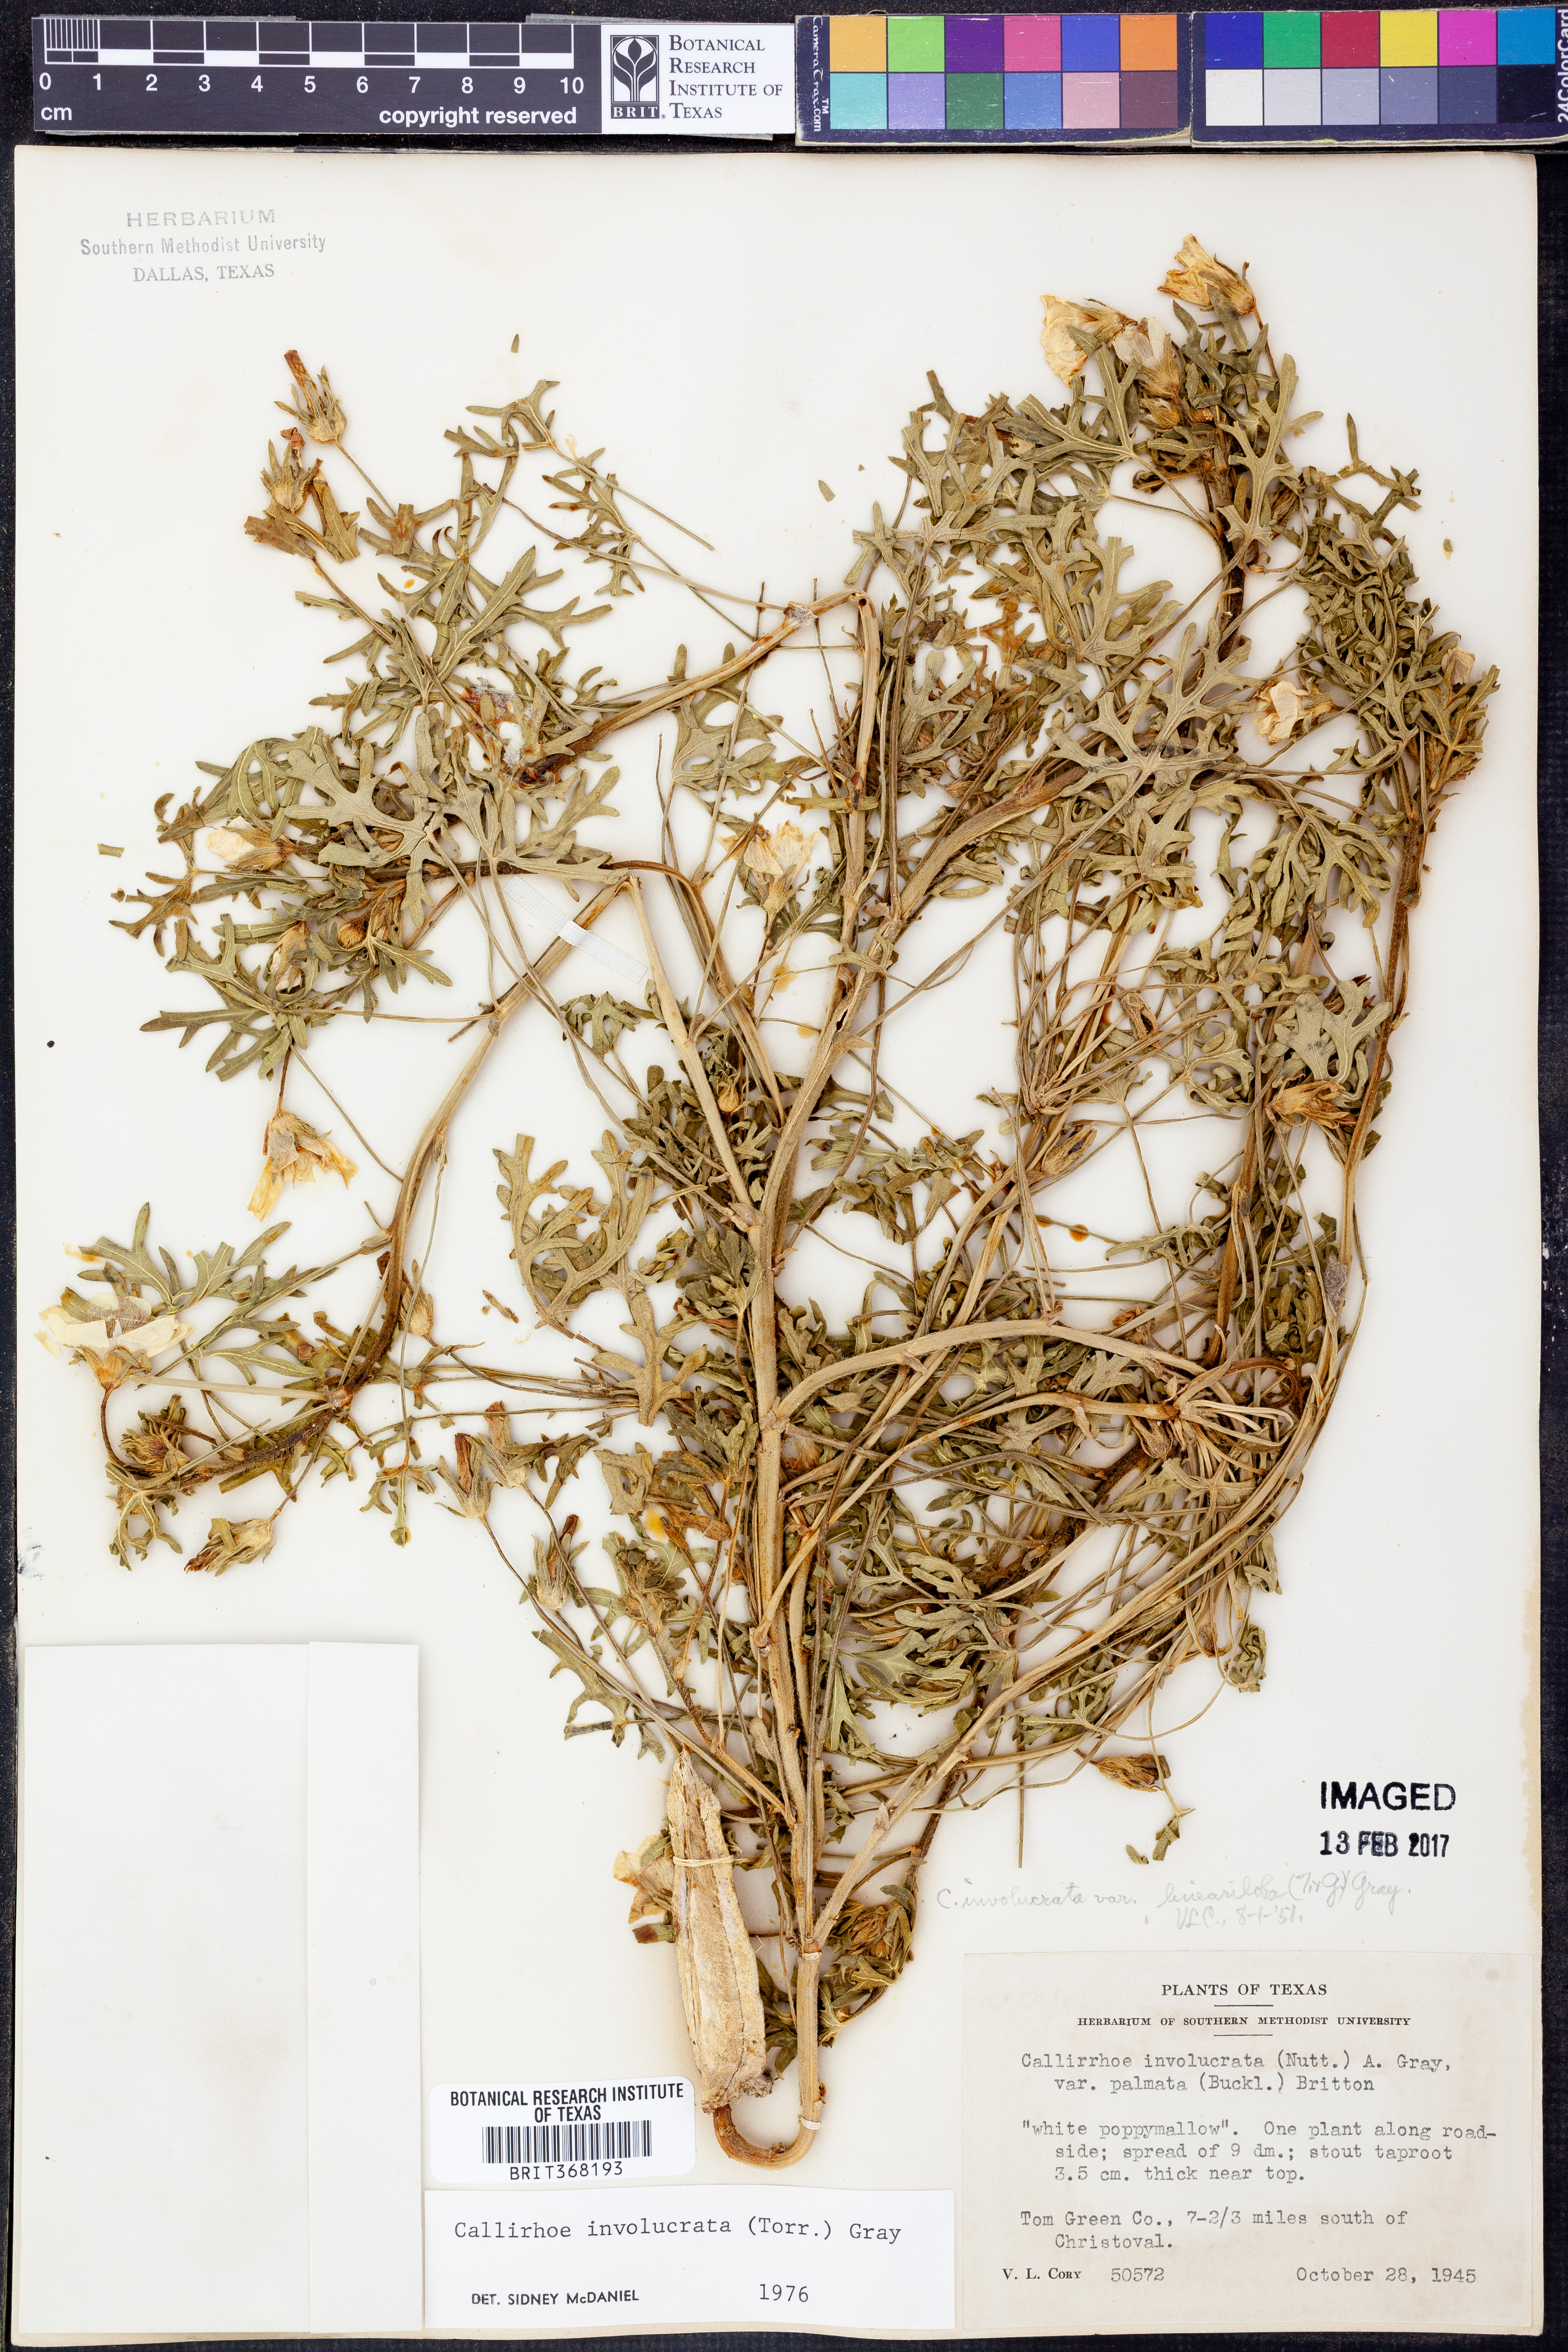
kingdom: Plantae
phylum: Tracheophyta
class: Magnoliopsida
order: Malvales
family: Malvaceae
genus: Callirhoe
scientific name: Callirhoe involucrata
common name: Purple poppy-mallow
